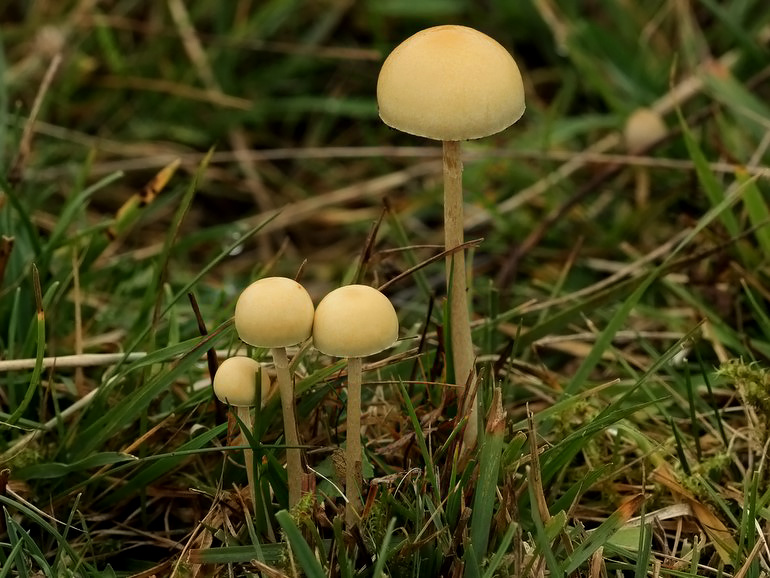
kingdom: Fungi
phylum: Basidiomycota
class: Agaricomycetes
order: Agaricales
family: Strophariaceae
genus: Protostropharia
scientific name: Protostropharia semiglobata
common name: halvkugleformet bredblad
